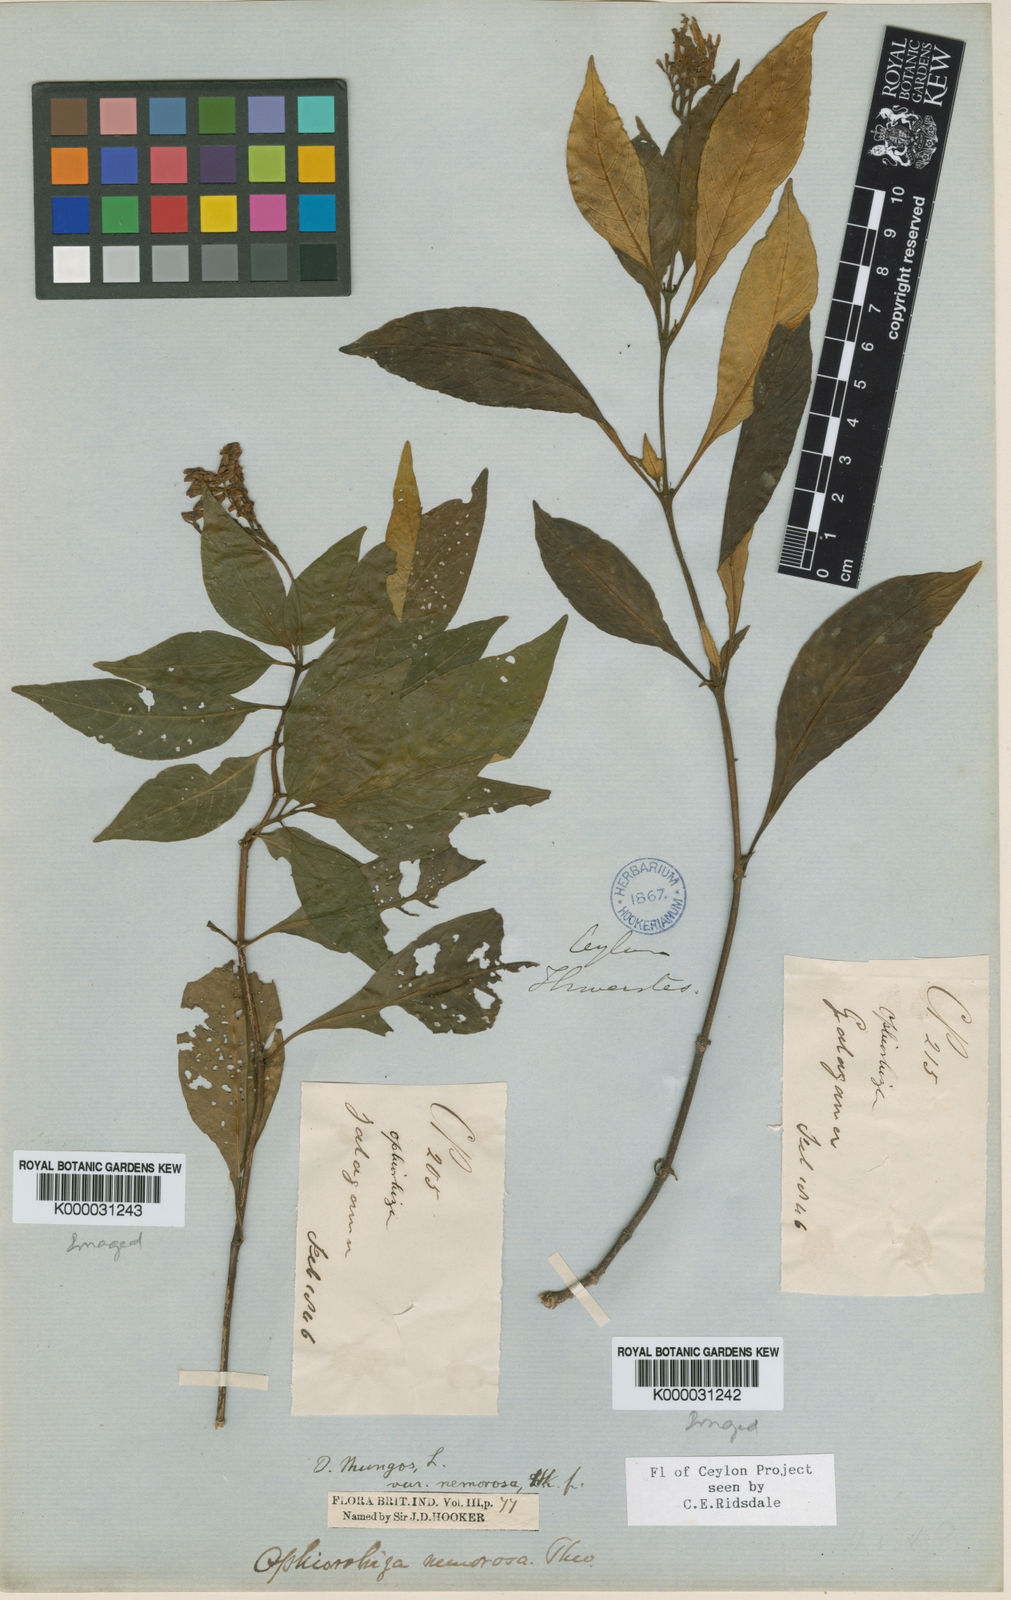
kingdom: Plantae
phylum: Tracheophyta
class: Magnoliopsida
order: Gentianales
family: Rubiaceae
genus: Ophiorrhiza
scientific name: Ophiorrhiza nemorosa
